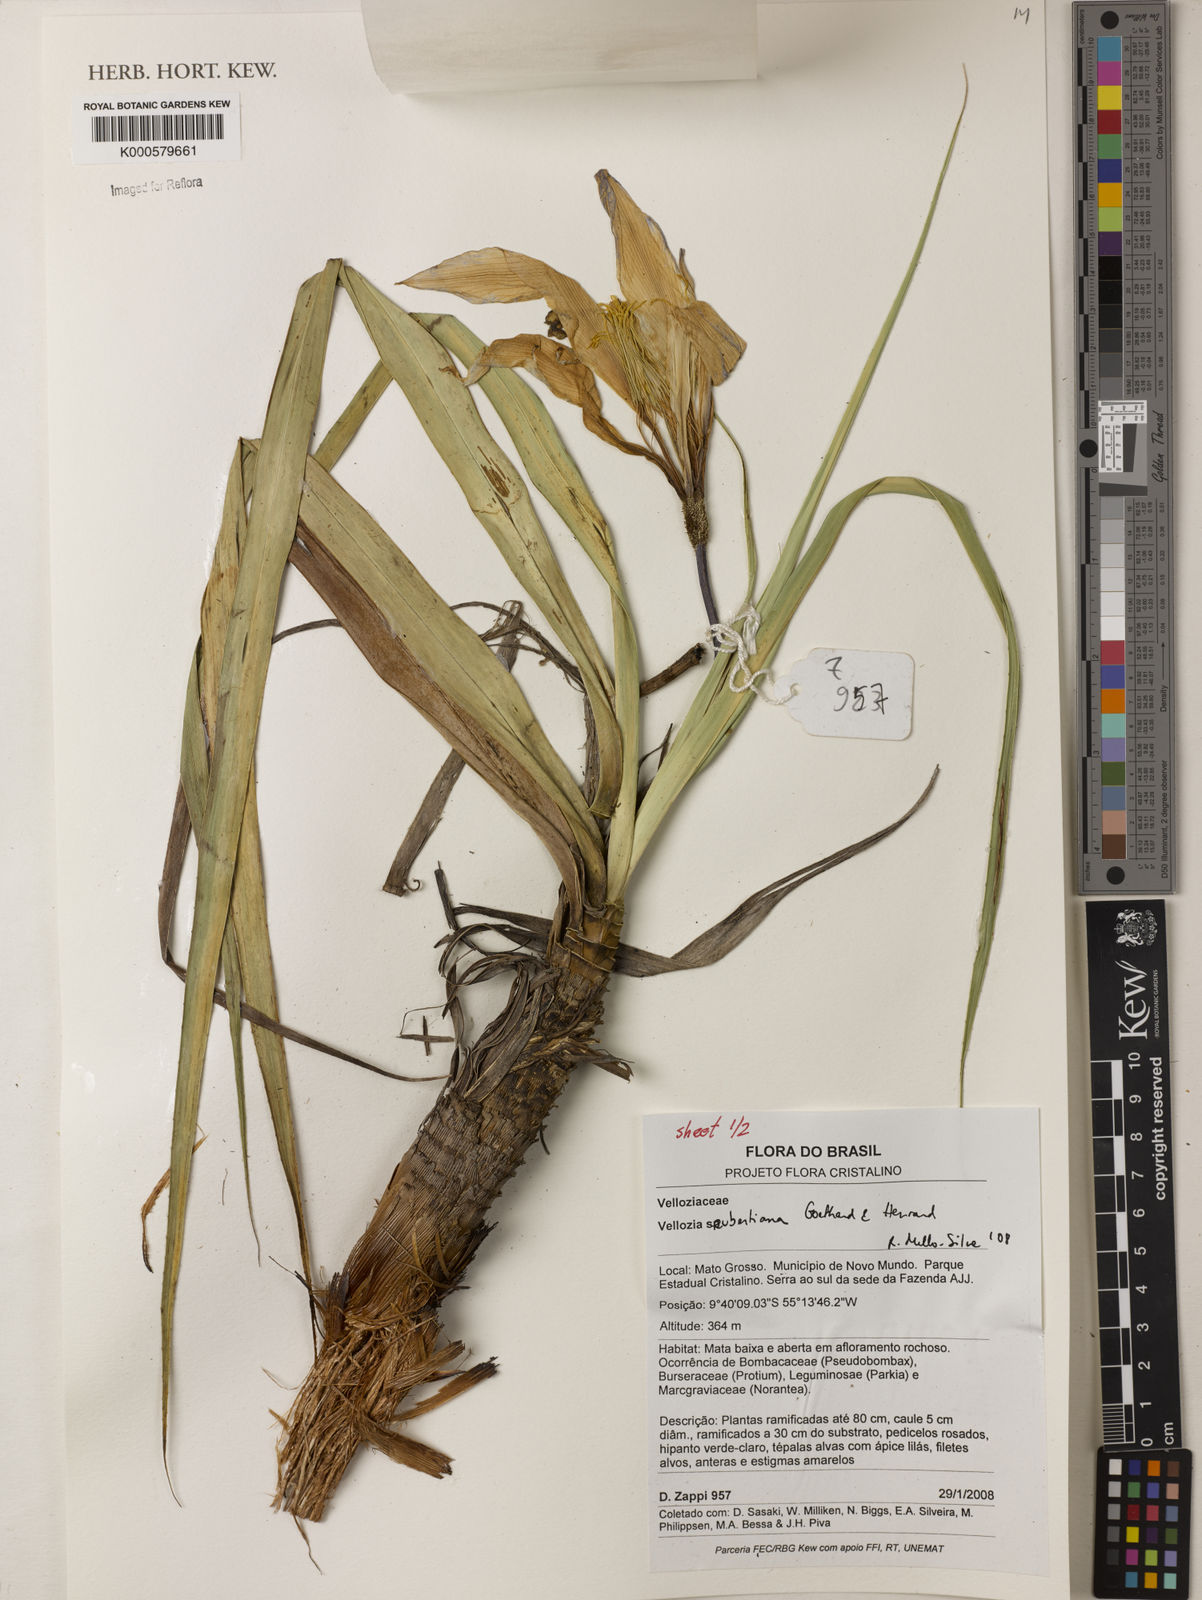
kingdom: Plantae
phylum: Tracheophyta
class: Liliopsida
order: Pandanales
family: Velloziaceae
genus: Vellozia
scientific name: Vellozia seubertiana
